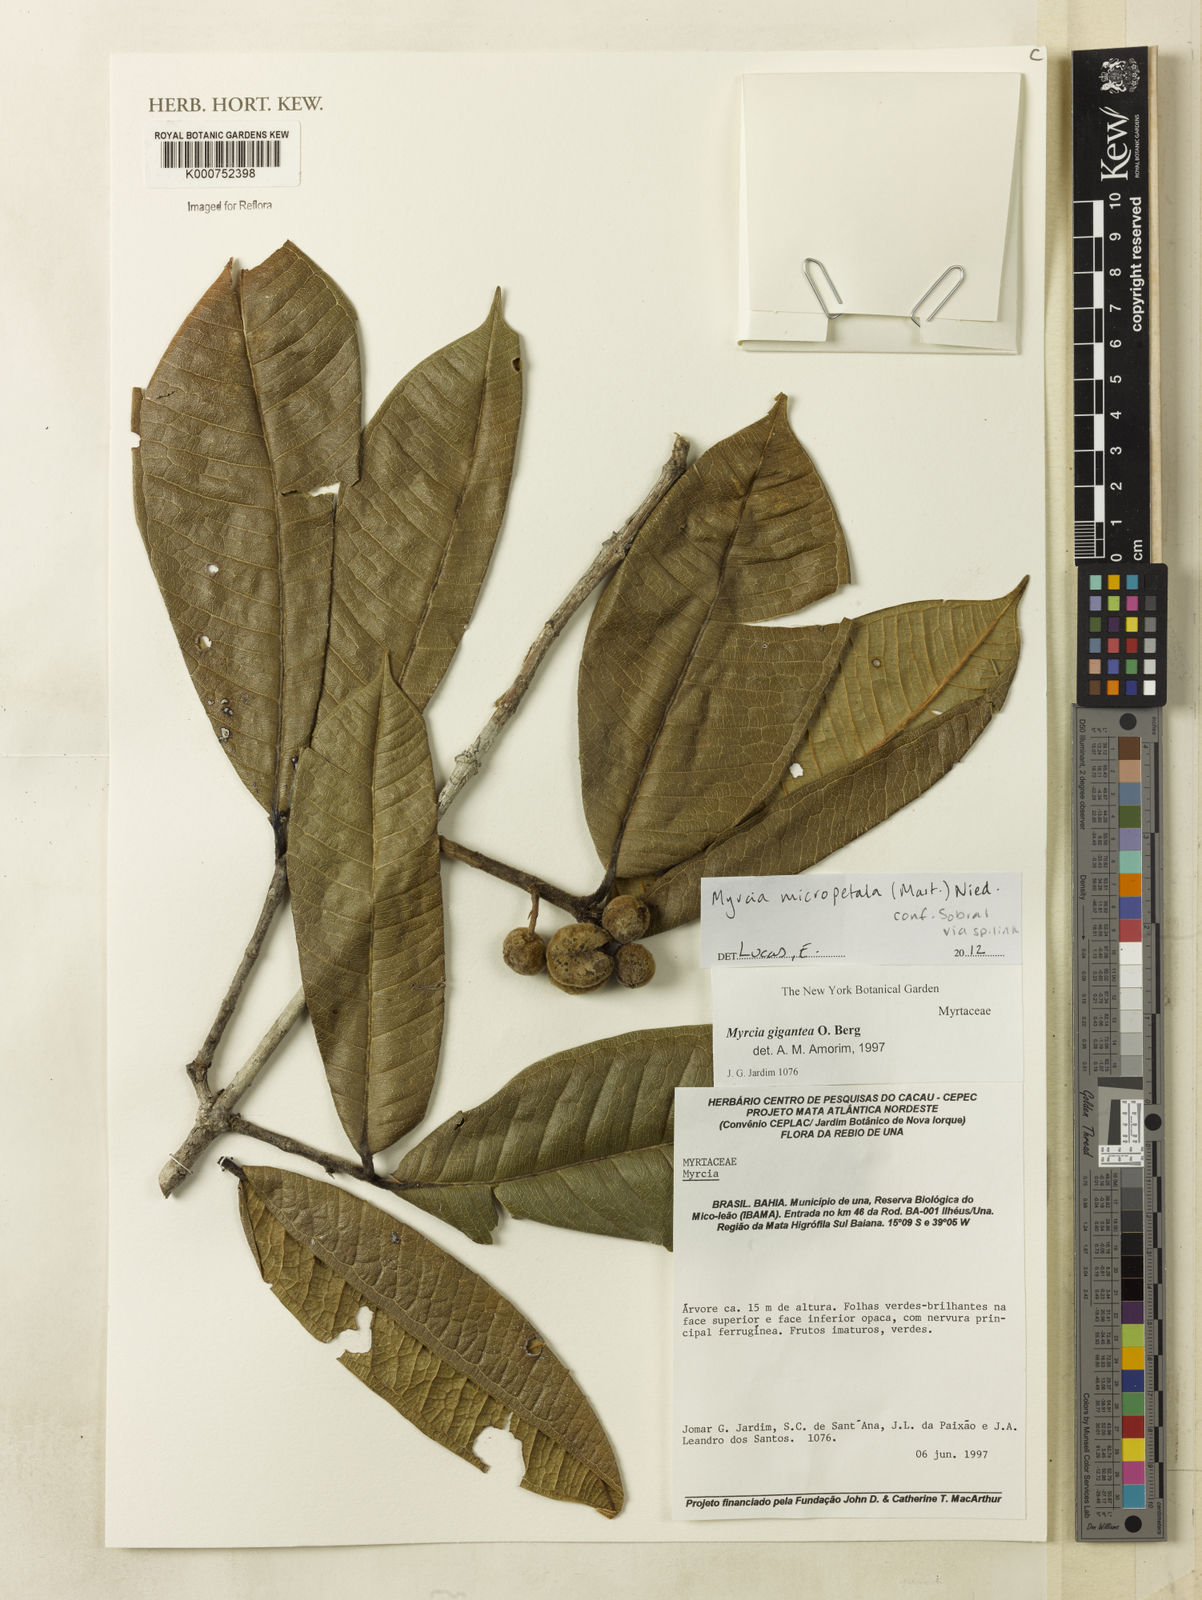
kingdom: Plantae
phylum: Tracheophyta
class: Magnoliopsida
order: Myrtales
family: Myrtaceae
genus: Myrcia
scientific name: Myrcia micropetala
